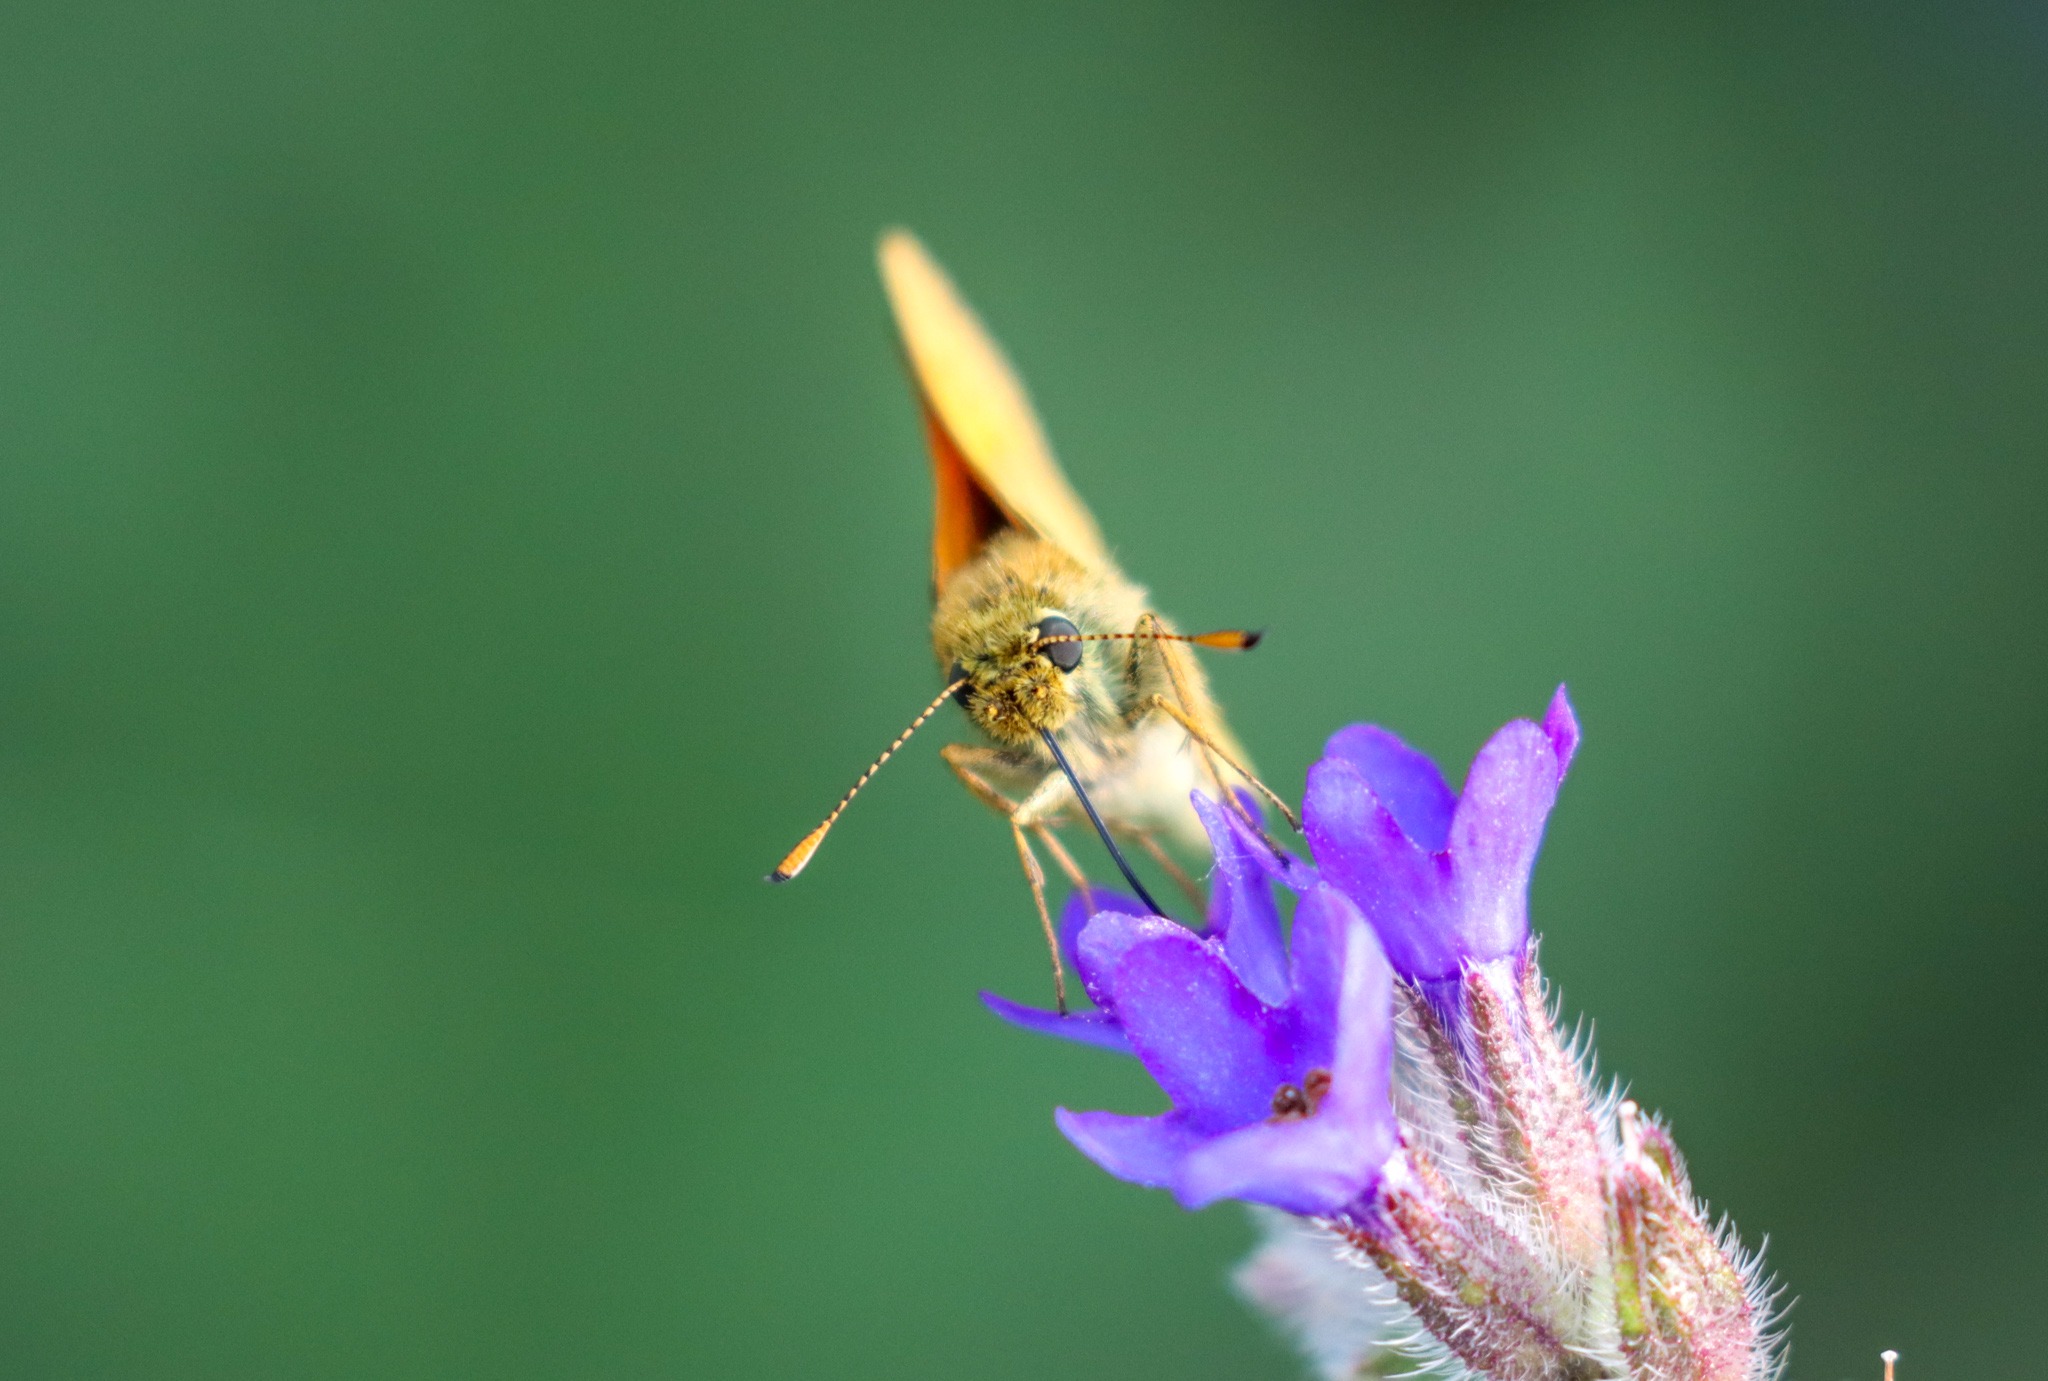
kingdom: Animalia
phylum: Arthropoda
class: Insecta
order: Lepidoptera
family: Hesperiidae
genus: Ochlodes
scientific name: Ochlodes venata
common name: Stor bredpande
